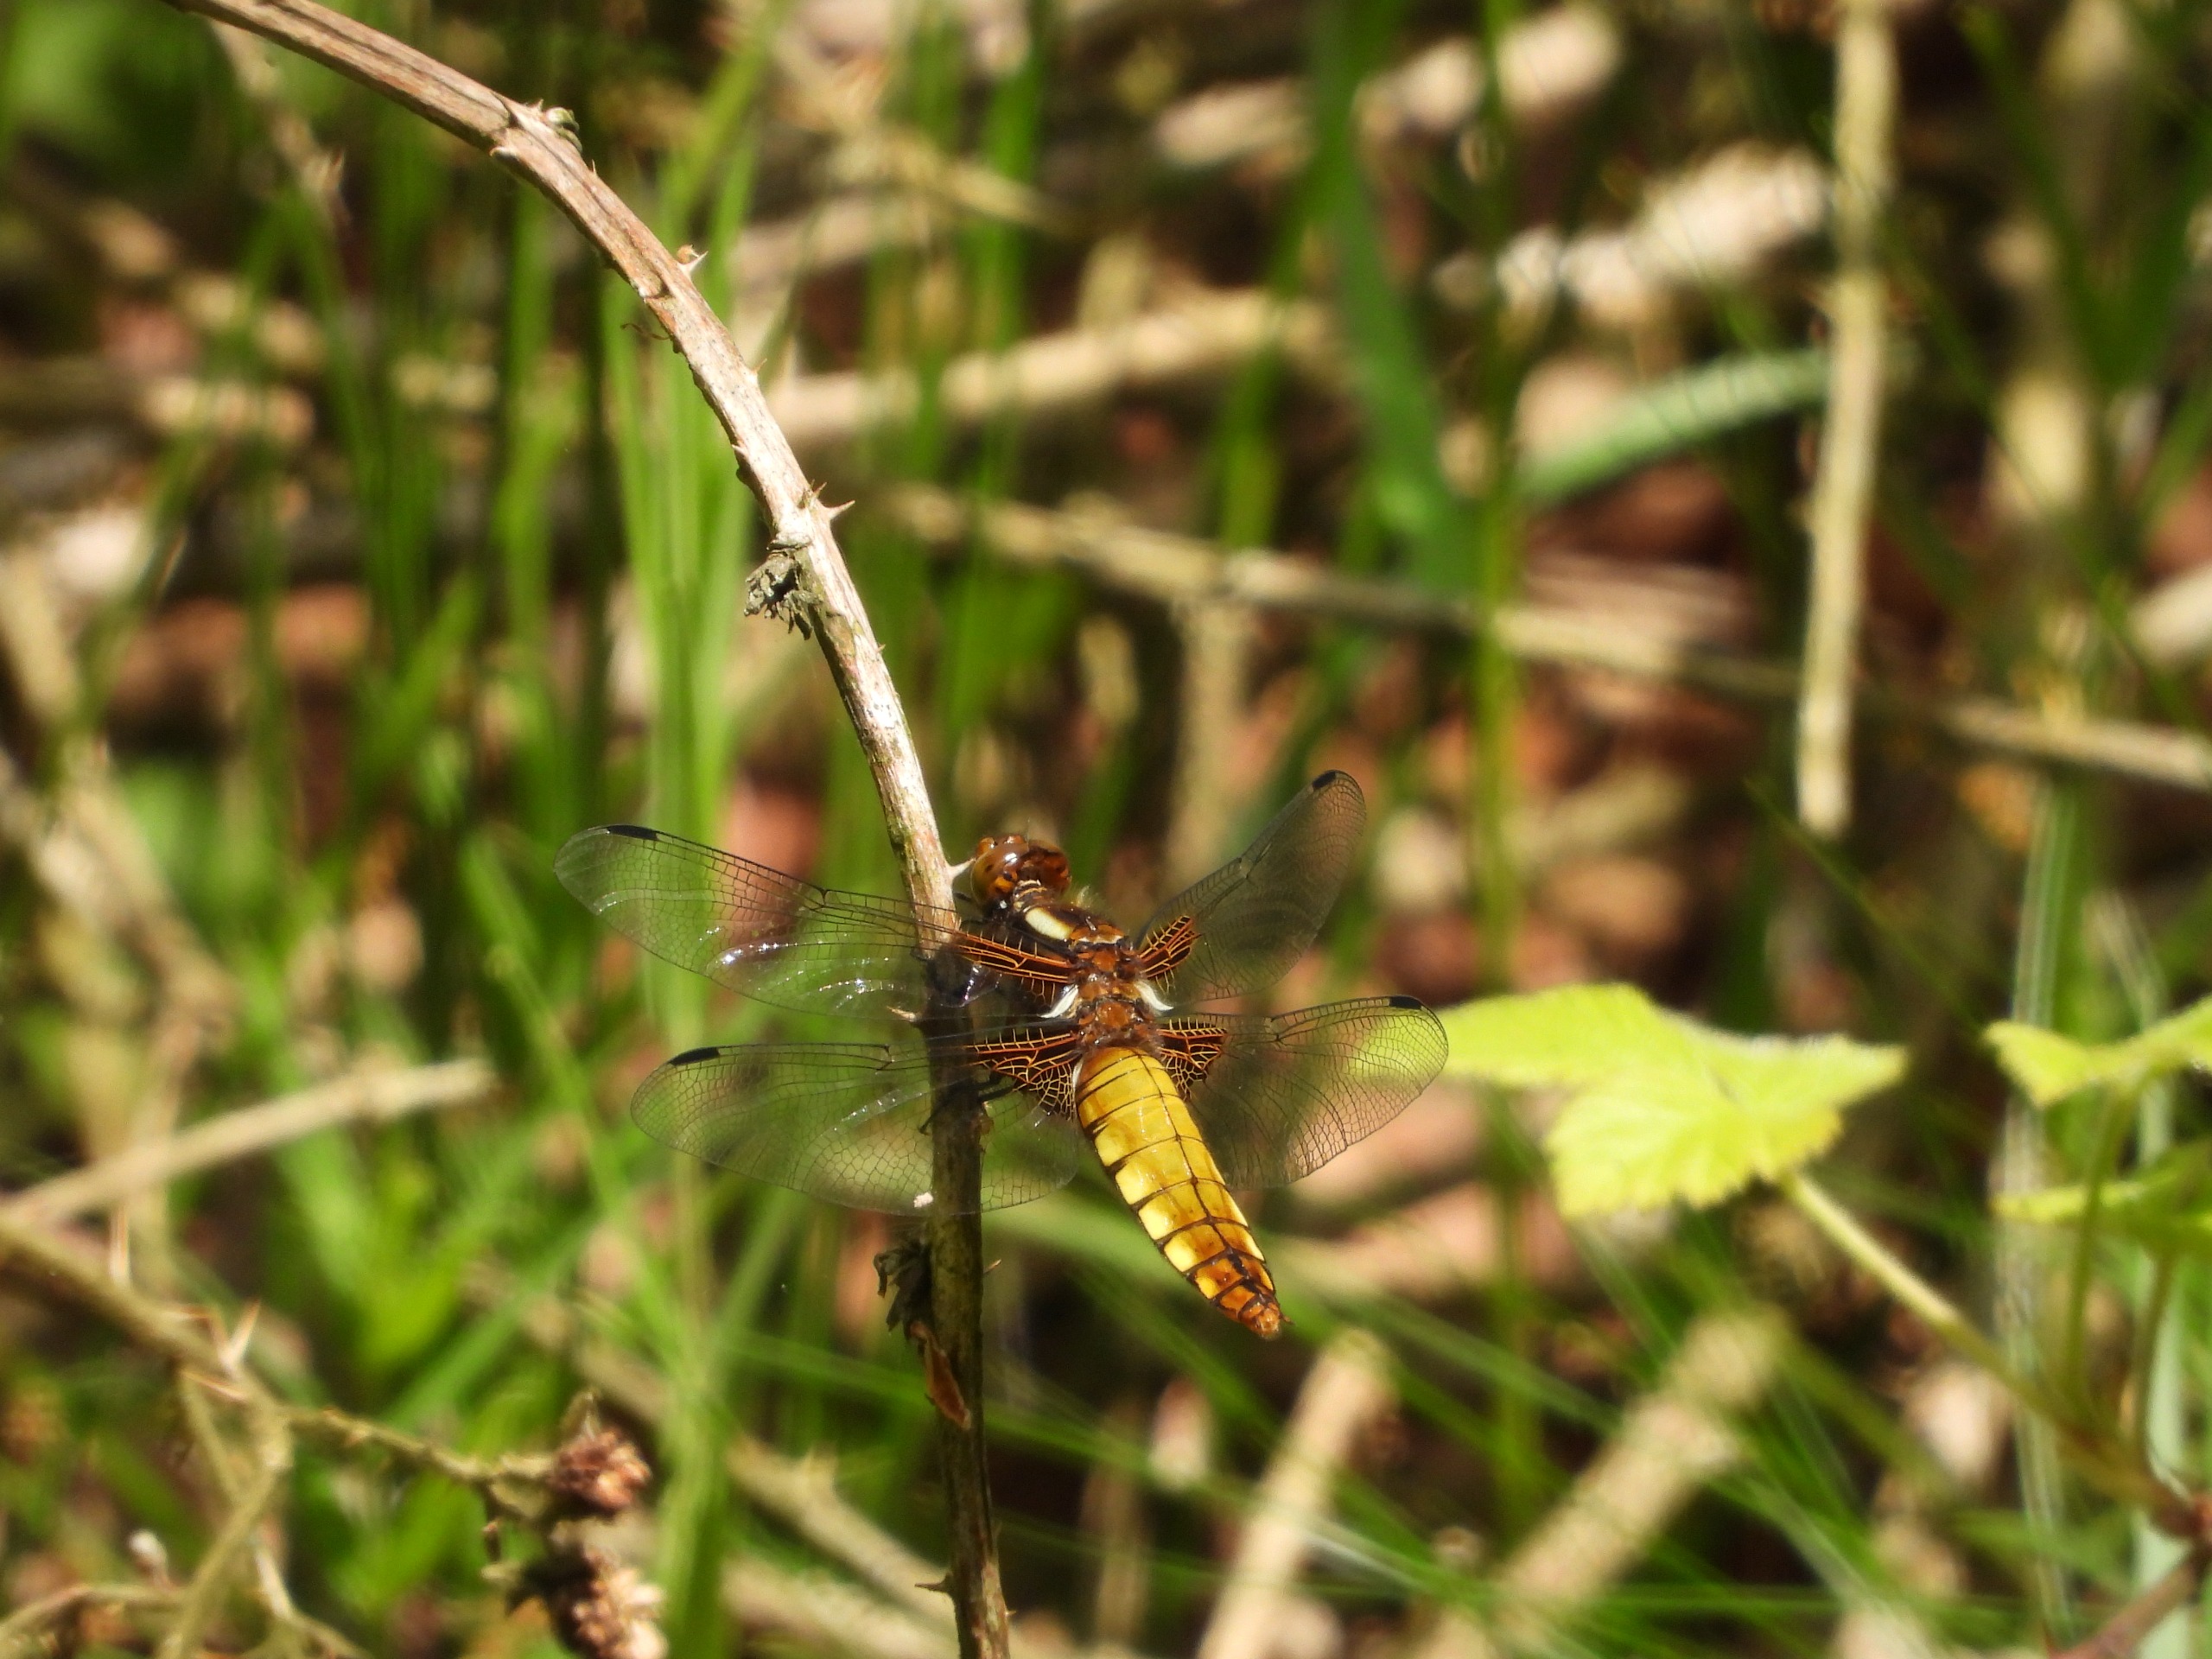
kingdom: Animalia
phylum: Arthropoda
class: Insecta
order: Odonata
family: Libellulidae
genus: Libellula
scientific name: Libellula depressa
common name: Blå libel
